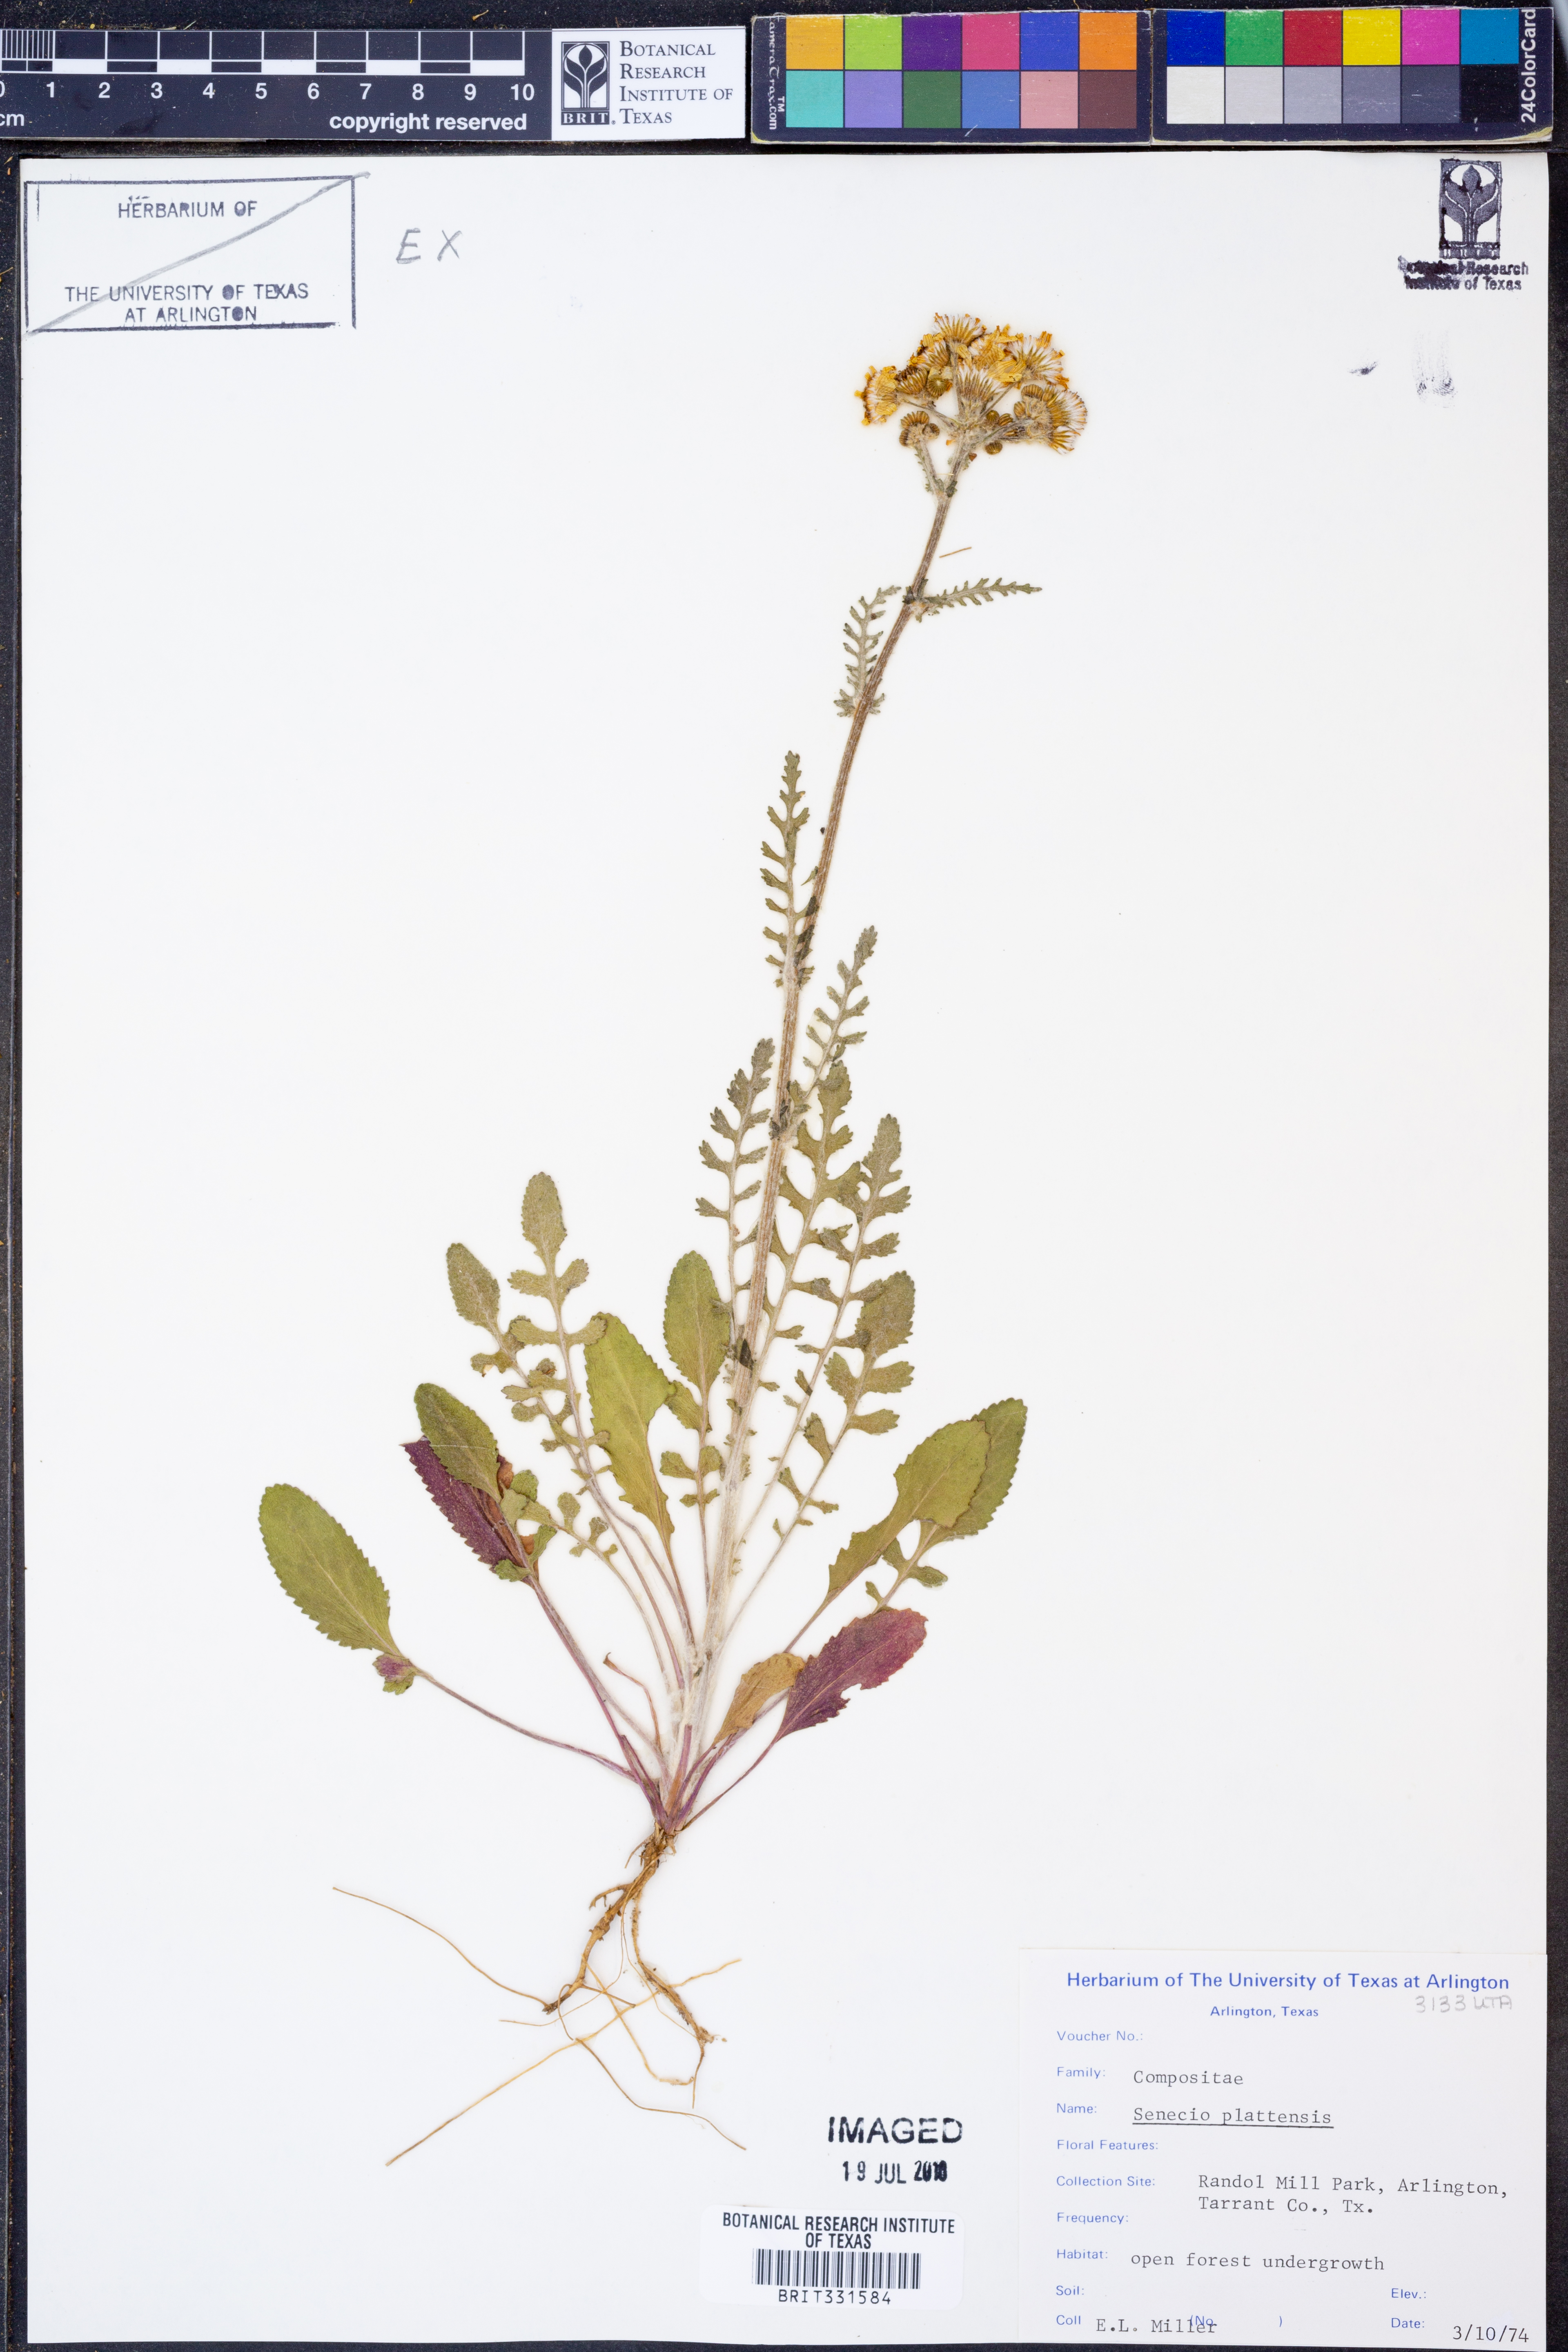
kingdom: Plantae
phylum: Tracheophyta
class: Magnoliopsida
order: Asterales
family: Asteraceae
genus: Packera
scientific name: Packera plattensis
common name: Prairie groundsel
